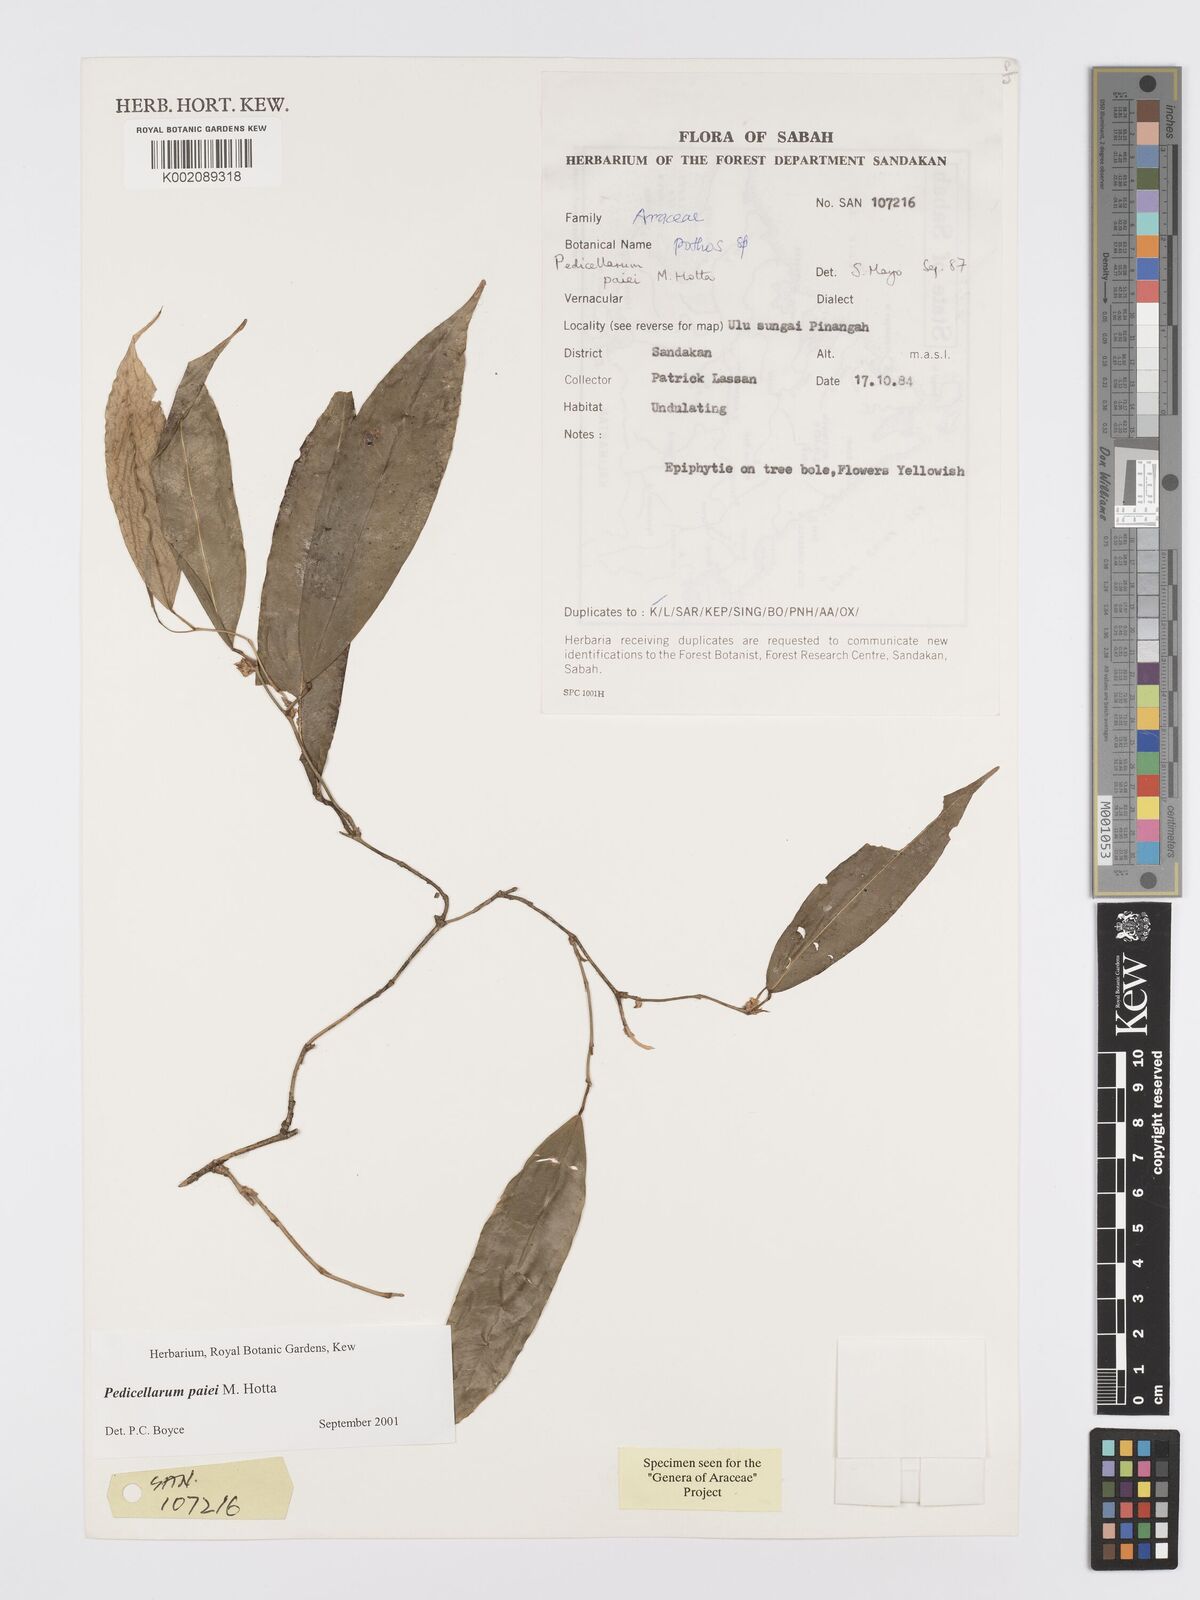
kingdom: Plantae
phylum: Tracheophyta
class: Liliopsida
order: Alismatales
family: Araceae
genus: Pothos
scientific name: Pothos paiei
